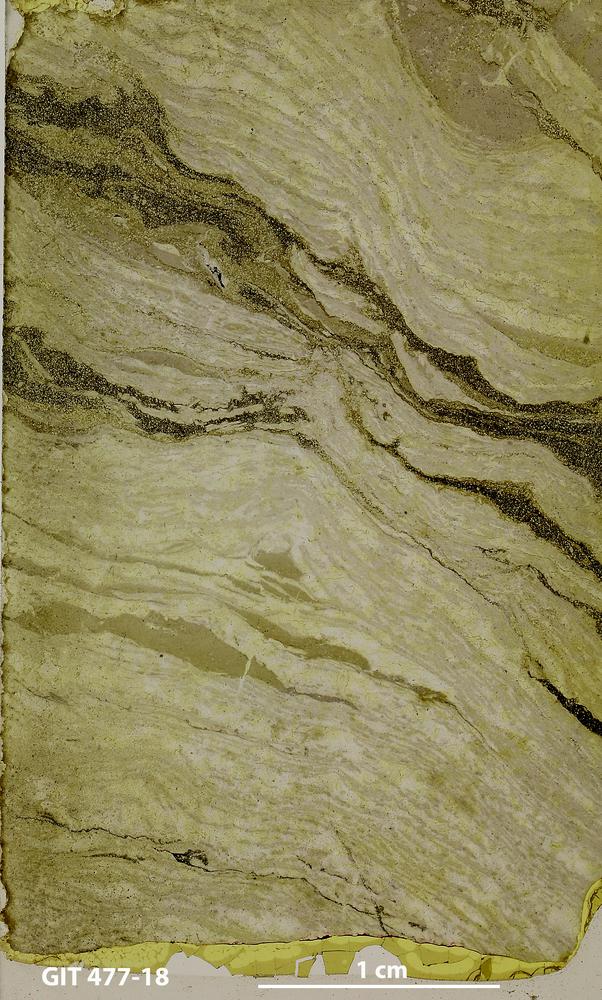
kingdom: Animalia
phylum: Porifera
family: Rosenellidae
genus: Pseudostylodictyon
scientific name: Pseudostylodictyon
